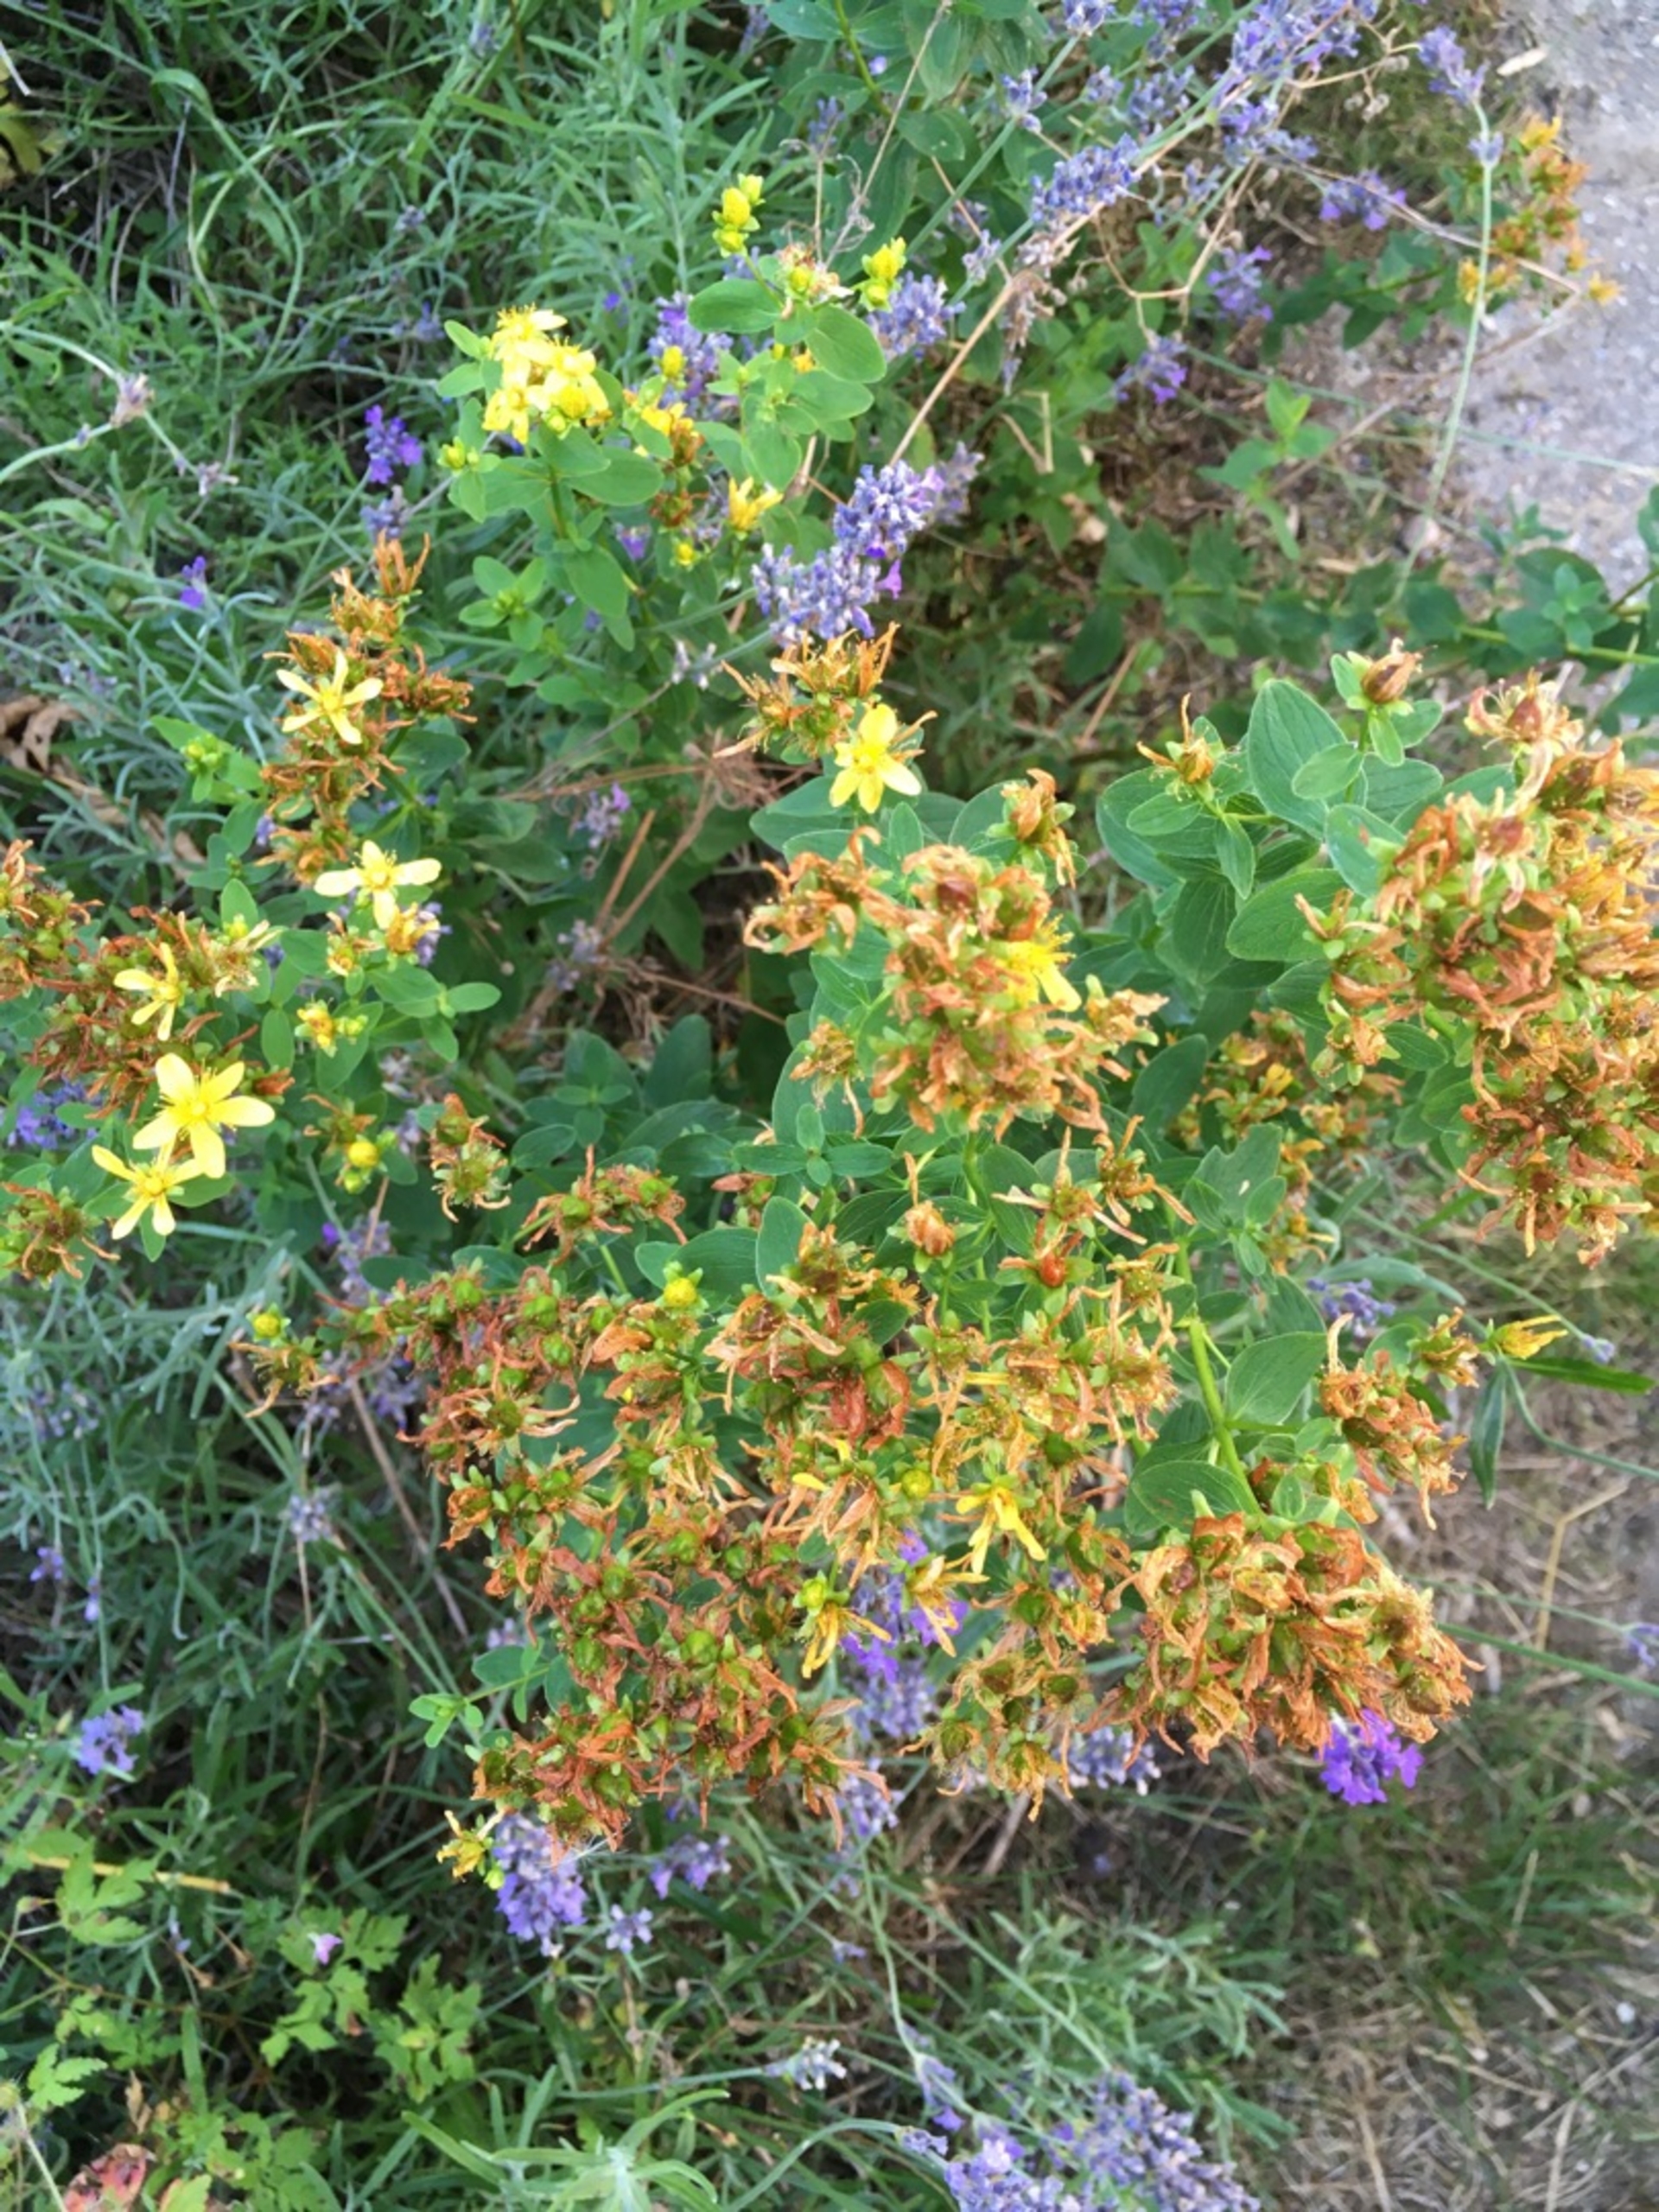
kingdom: Plantae
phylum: Tracheophyta
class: Magnoliopsida
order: Malpighiales
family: Hypericaceae
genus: Hypericum
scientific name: Hypericum maculatum
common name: Kantet perikon
